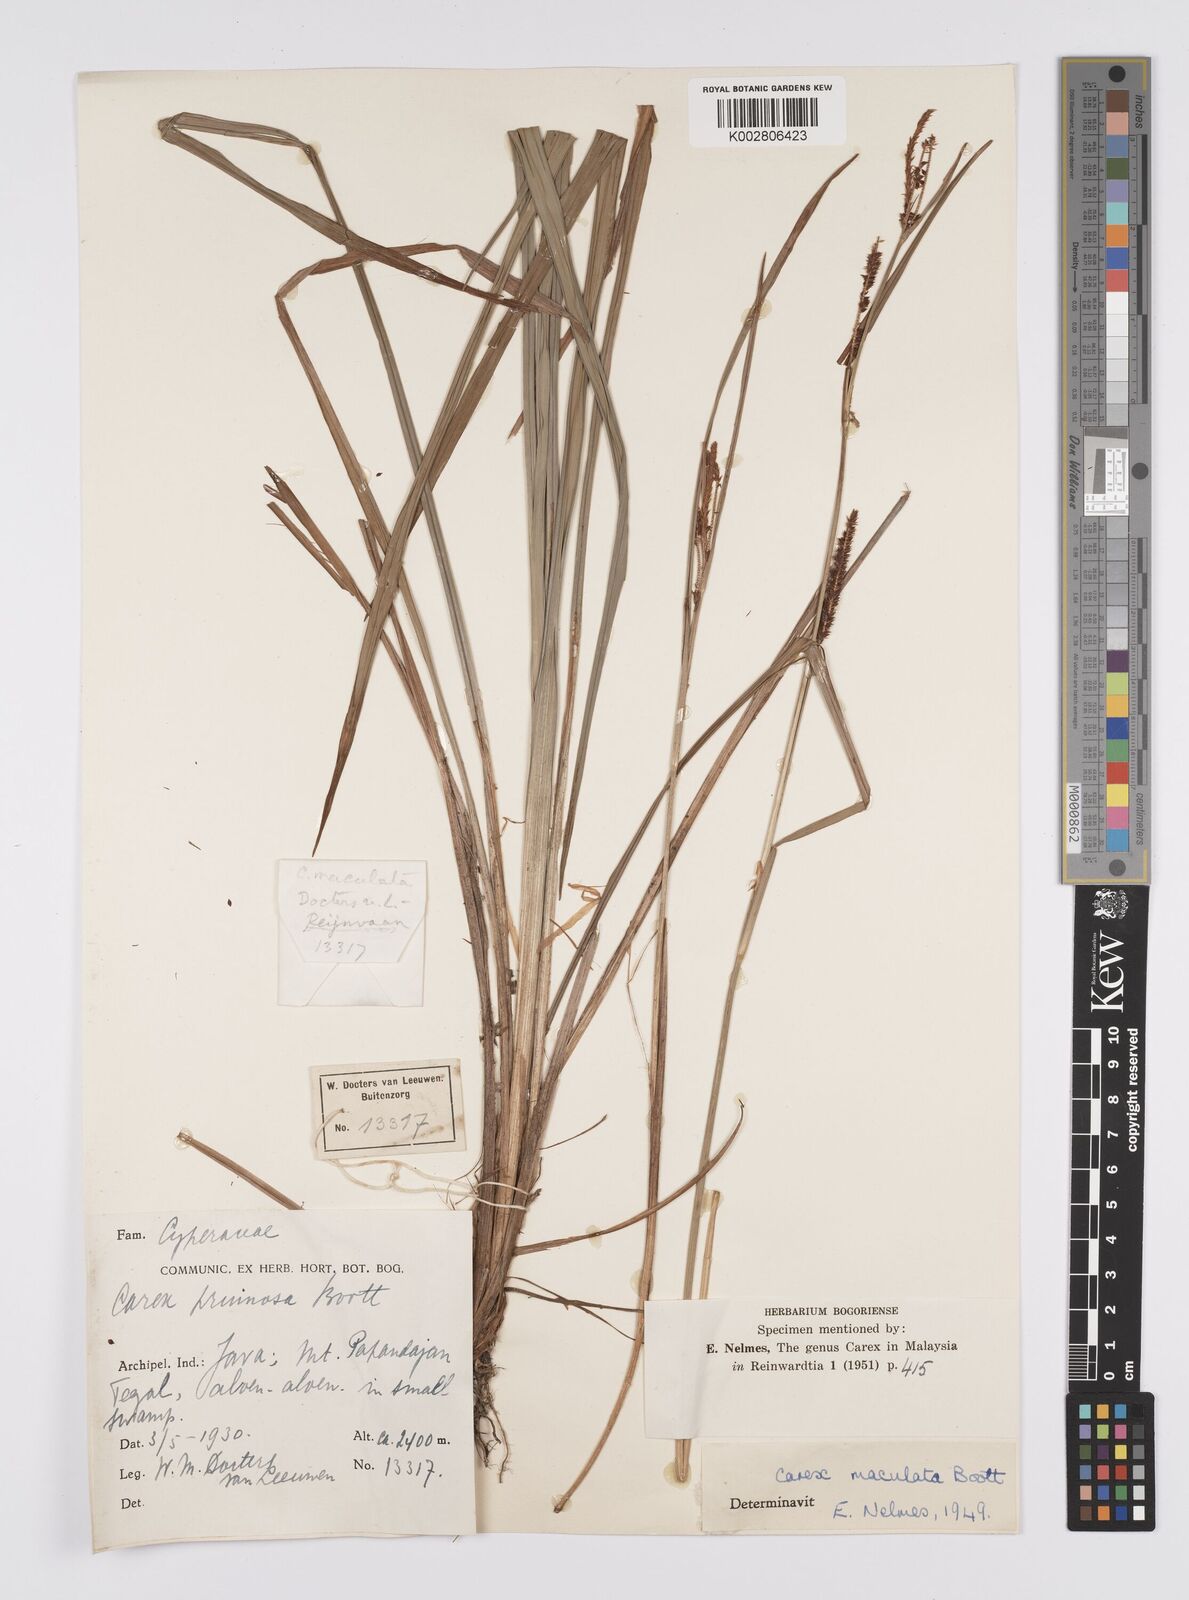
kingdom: Plantae
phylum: Tracheophyta
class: Liliopsida
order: Poales
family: Cyperaceae
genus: Carex
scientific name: Carex maculata
